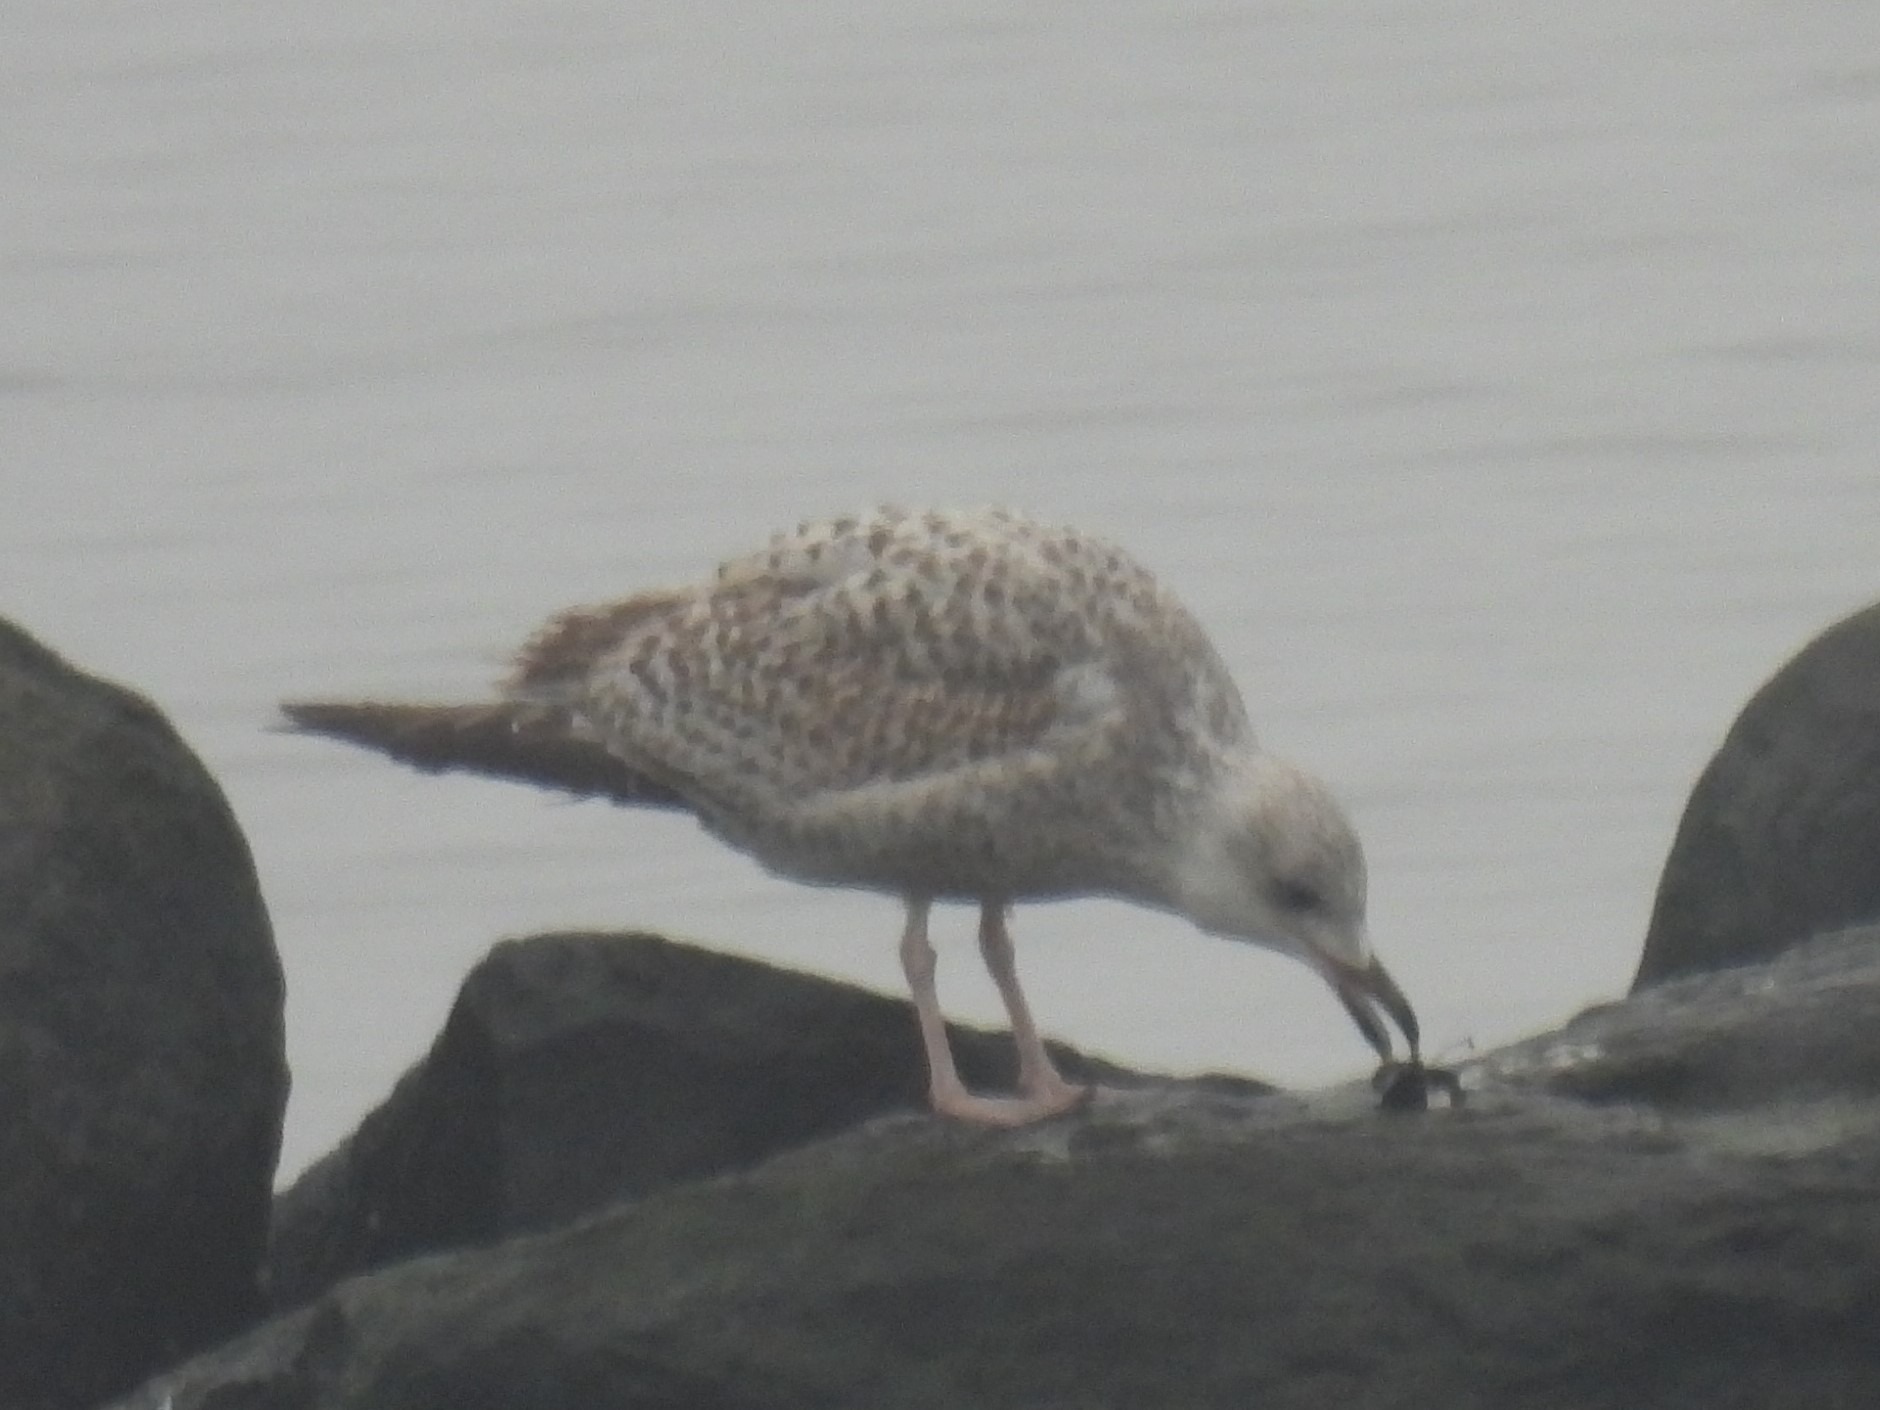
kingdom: Animalia
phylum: Chordata
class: Aves
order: Charadriiformes
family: Laridae
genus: Larus
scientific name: Larus argentatus
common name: Sølvmåge
